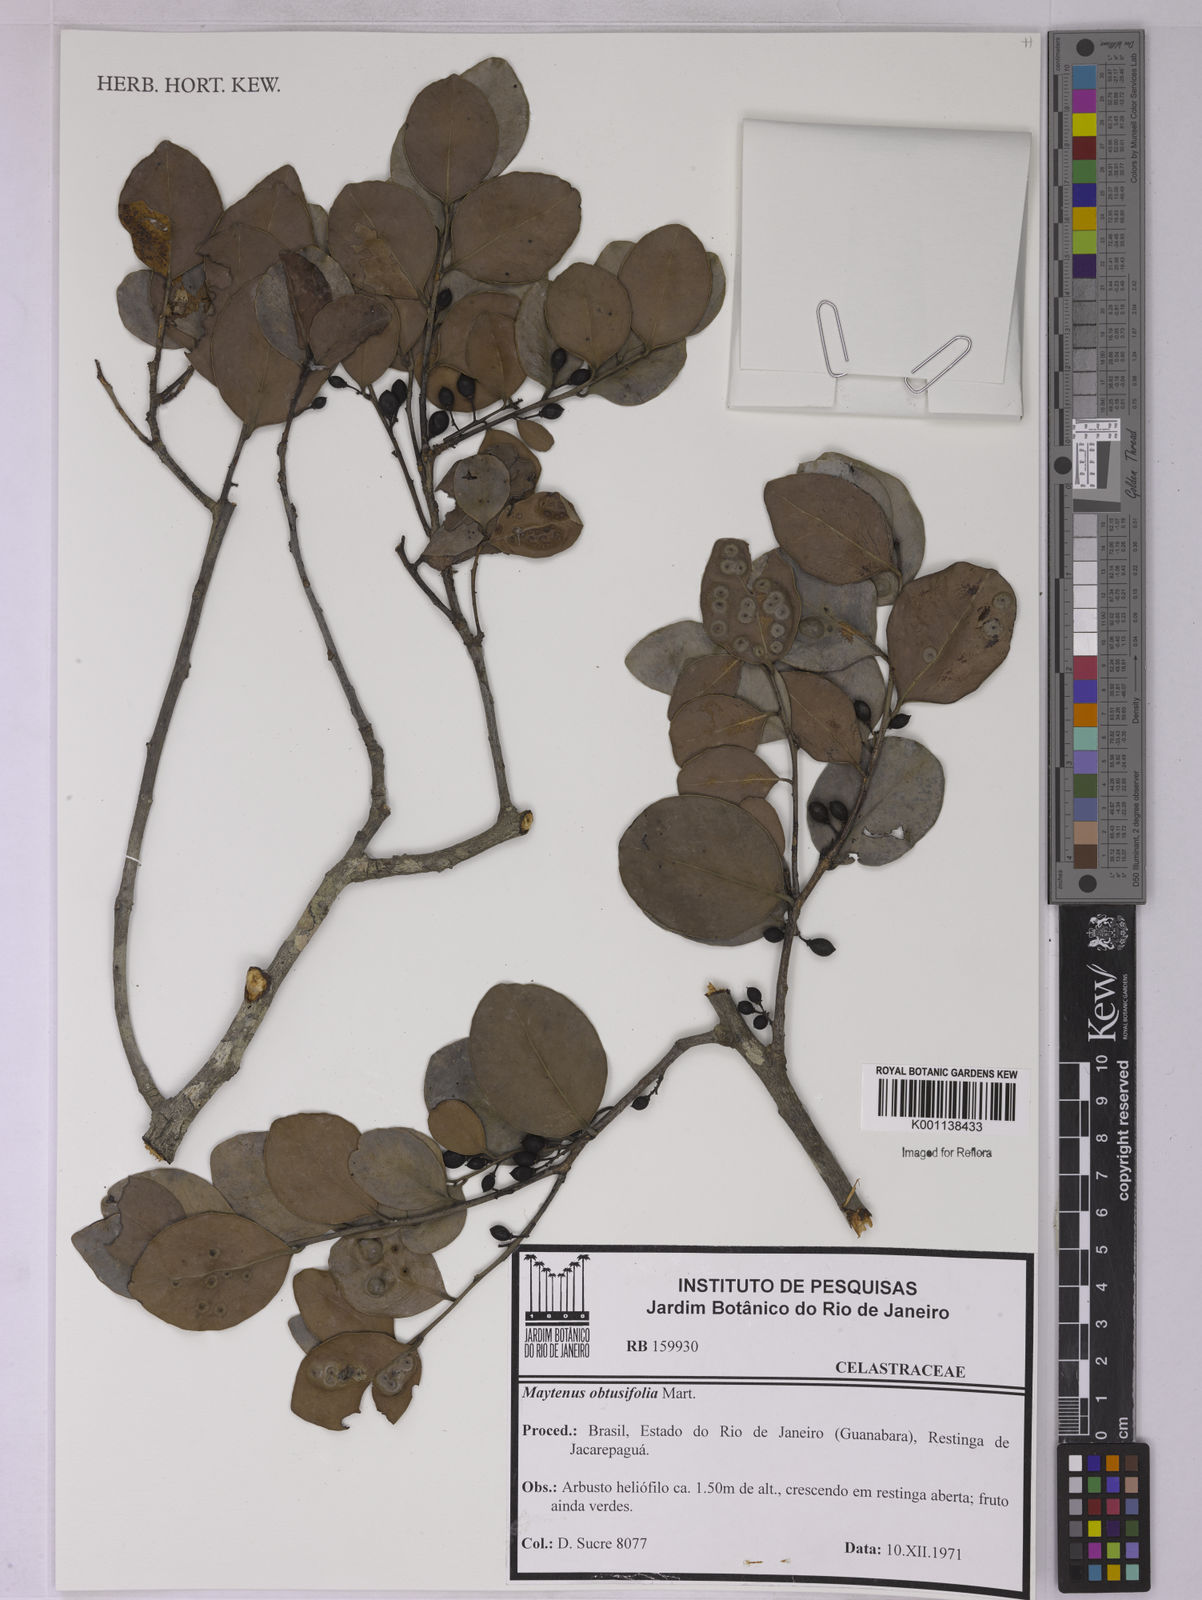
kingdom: Plantae
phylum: Tracheophyta
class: Magnoliopsida
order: Celastrales
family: Celastraceae
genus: Monteverdia
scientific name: Monteverdia obtusifolia
